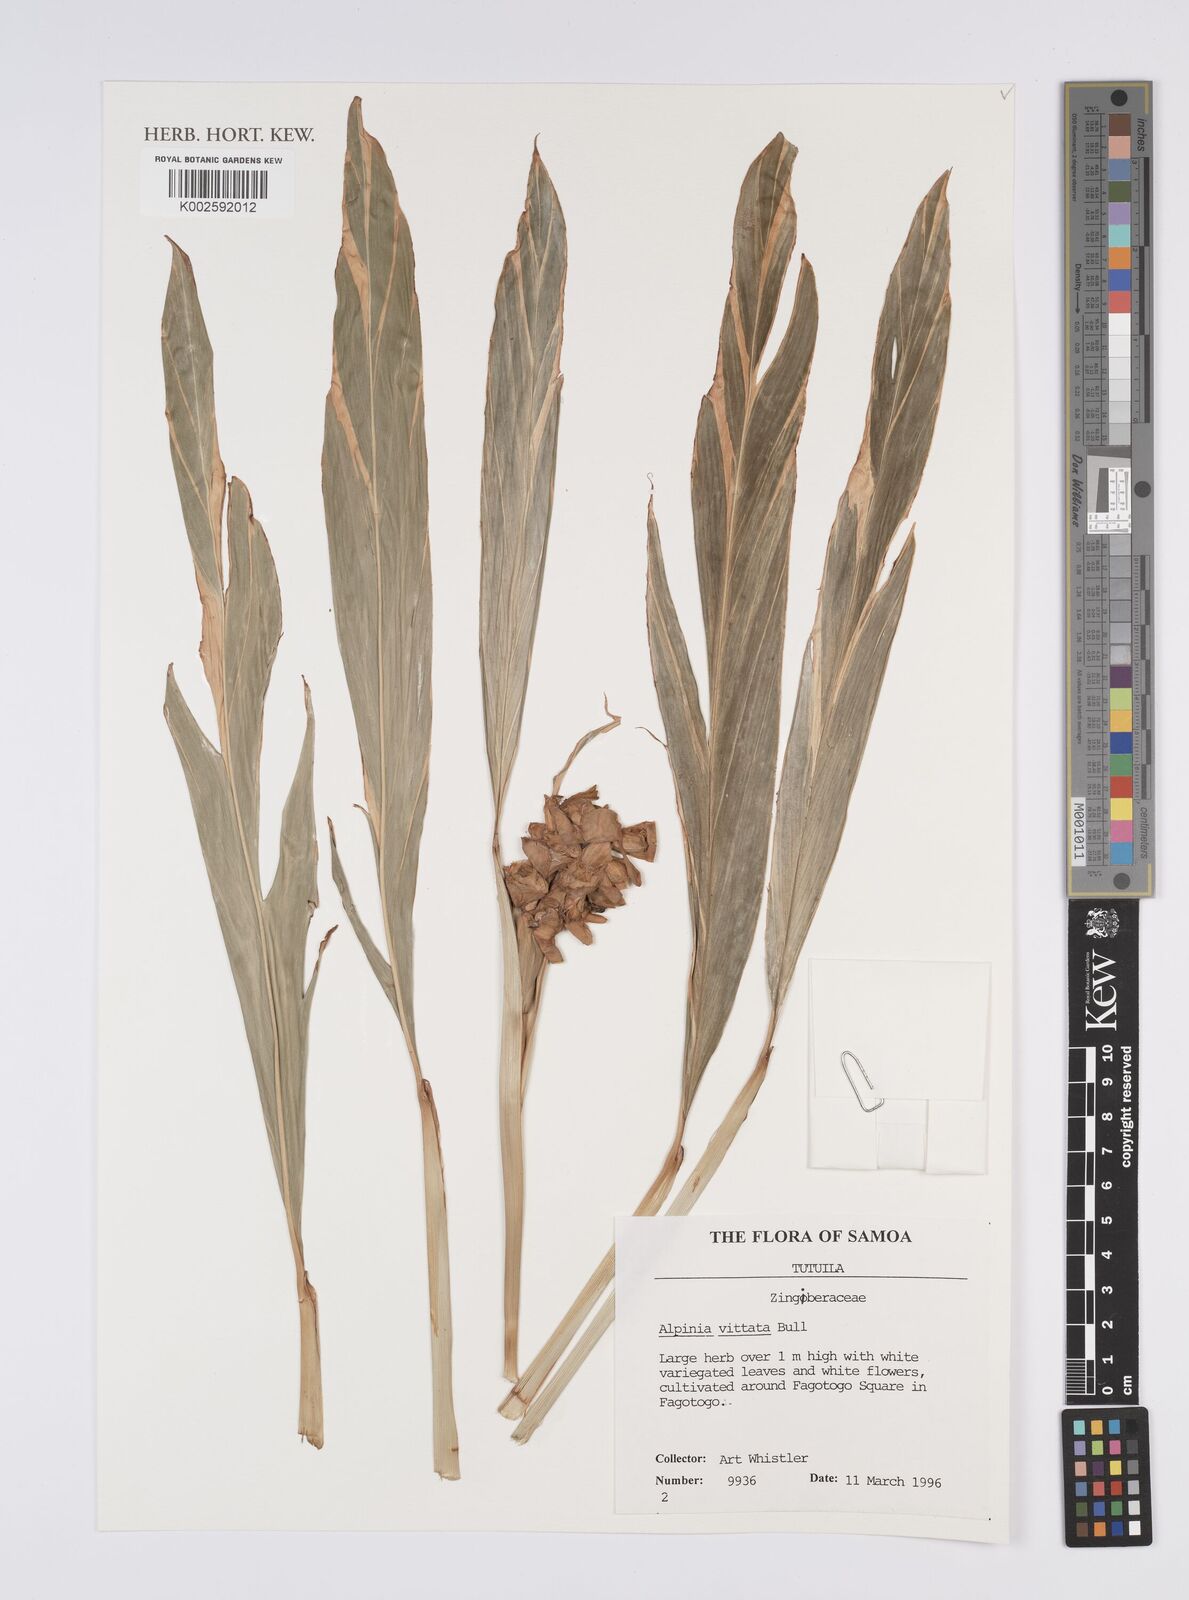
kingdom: Plantae
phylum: Tracheophyta
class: Liliopsida
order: Zingiberales
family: Zingiberaceae
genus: Alpinia
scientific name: Alpinia vittata
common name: Variegate-ginger
